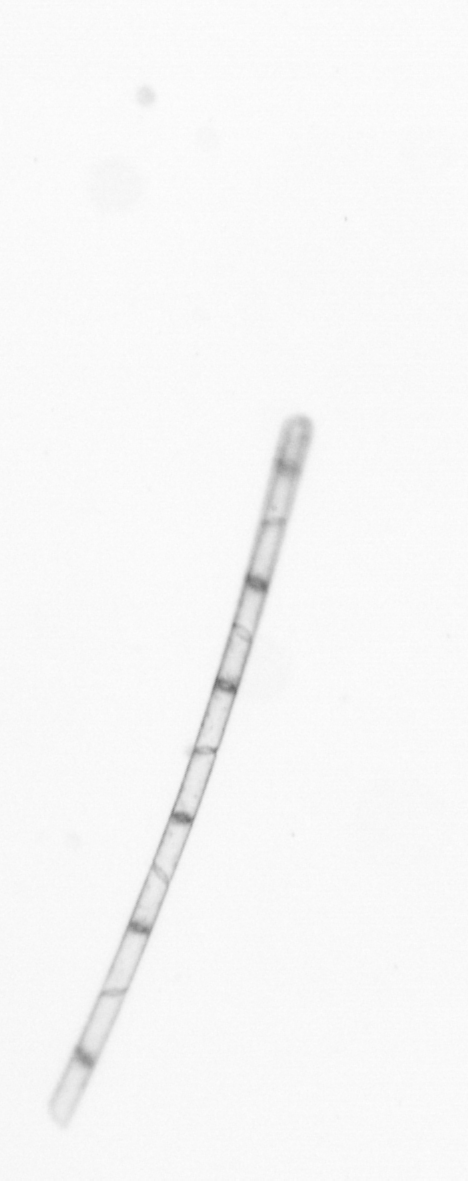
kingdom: Chromista
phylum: Ochrophyta
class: Bacillariophyceae
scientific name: Bacillariophyceae
